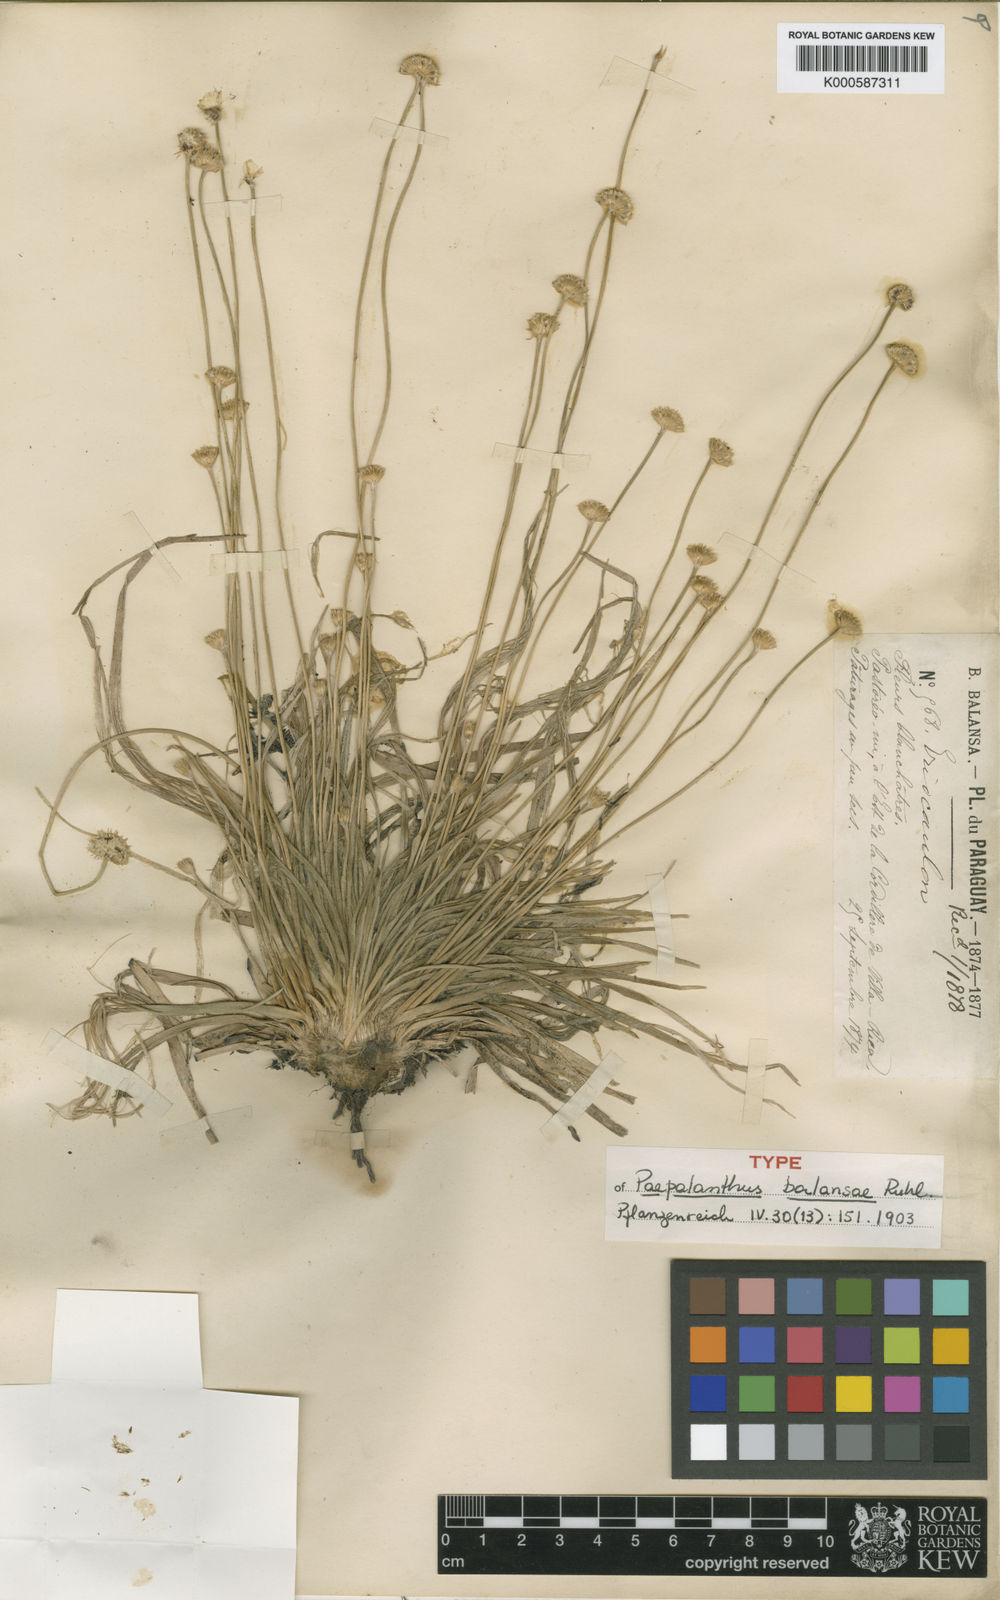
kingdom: Plantae
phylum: Tracheophyta
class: Liliopsida
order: Poales
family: Eriocaulaceae
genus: Paepalanthus
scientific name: Paepalanthus balansae
